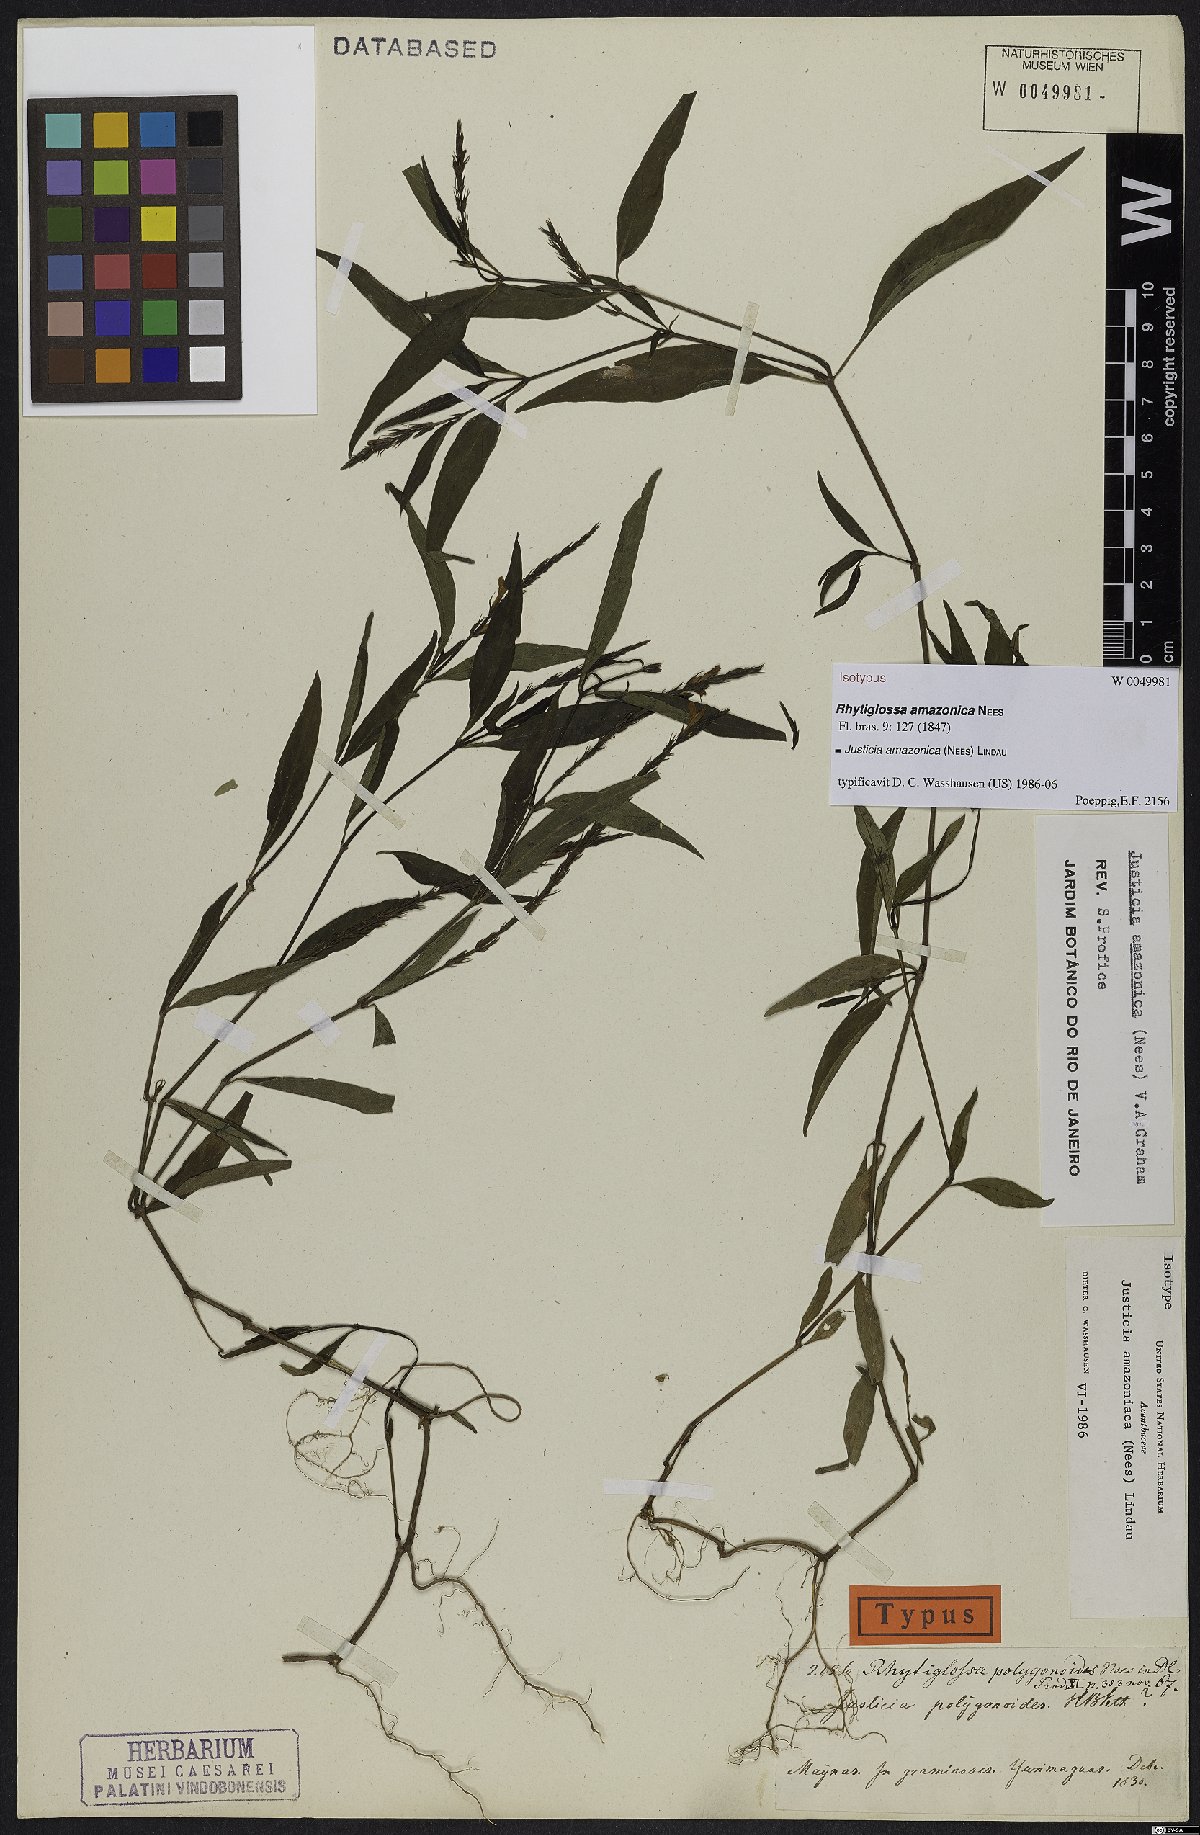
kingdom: Plantae
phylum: Tracheophyta
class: Magnoliopsida
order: Lamiales
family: Acanthaceae
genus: Justicia
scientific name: Justicia amazonica
